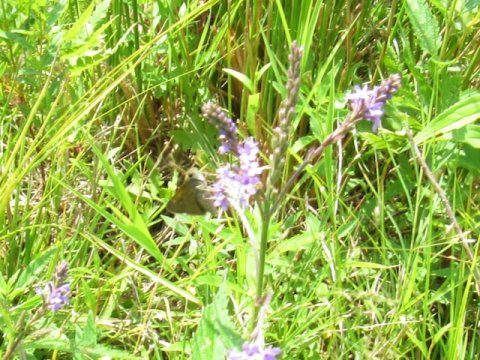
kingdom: Animalia
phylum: Arthropoda
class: Insecta
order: Lepidoptera
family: Hesperiidae
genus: Polites
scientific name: Polites themistocles
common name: Tawny-edged Skipper
